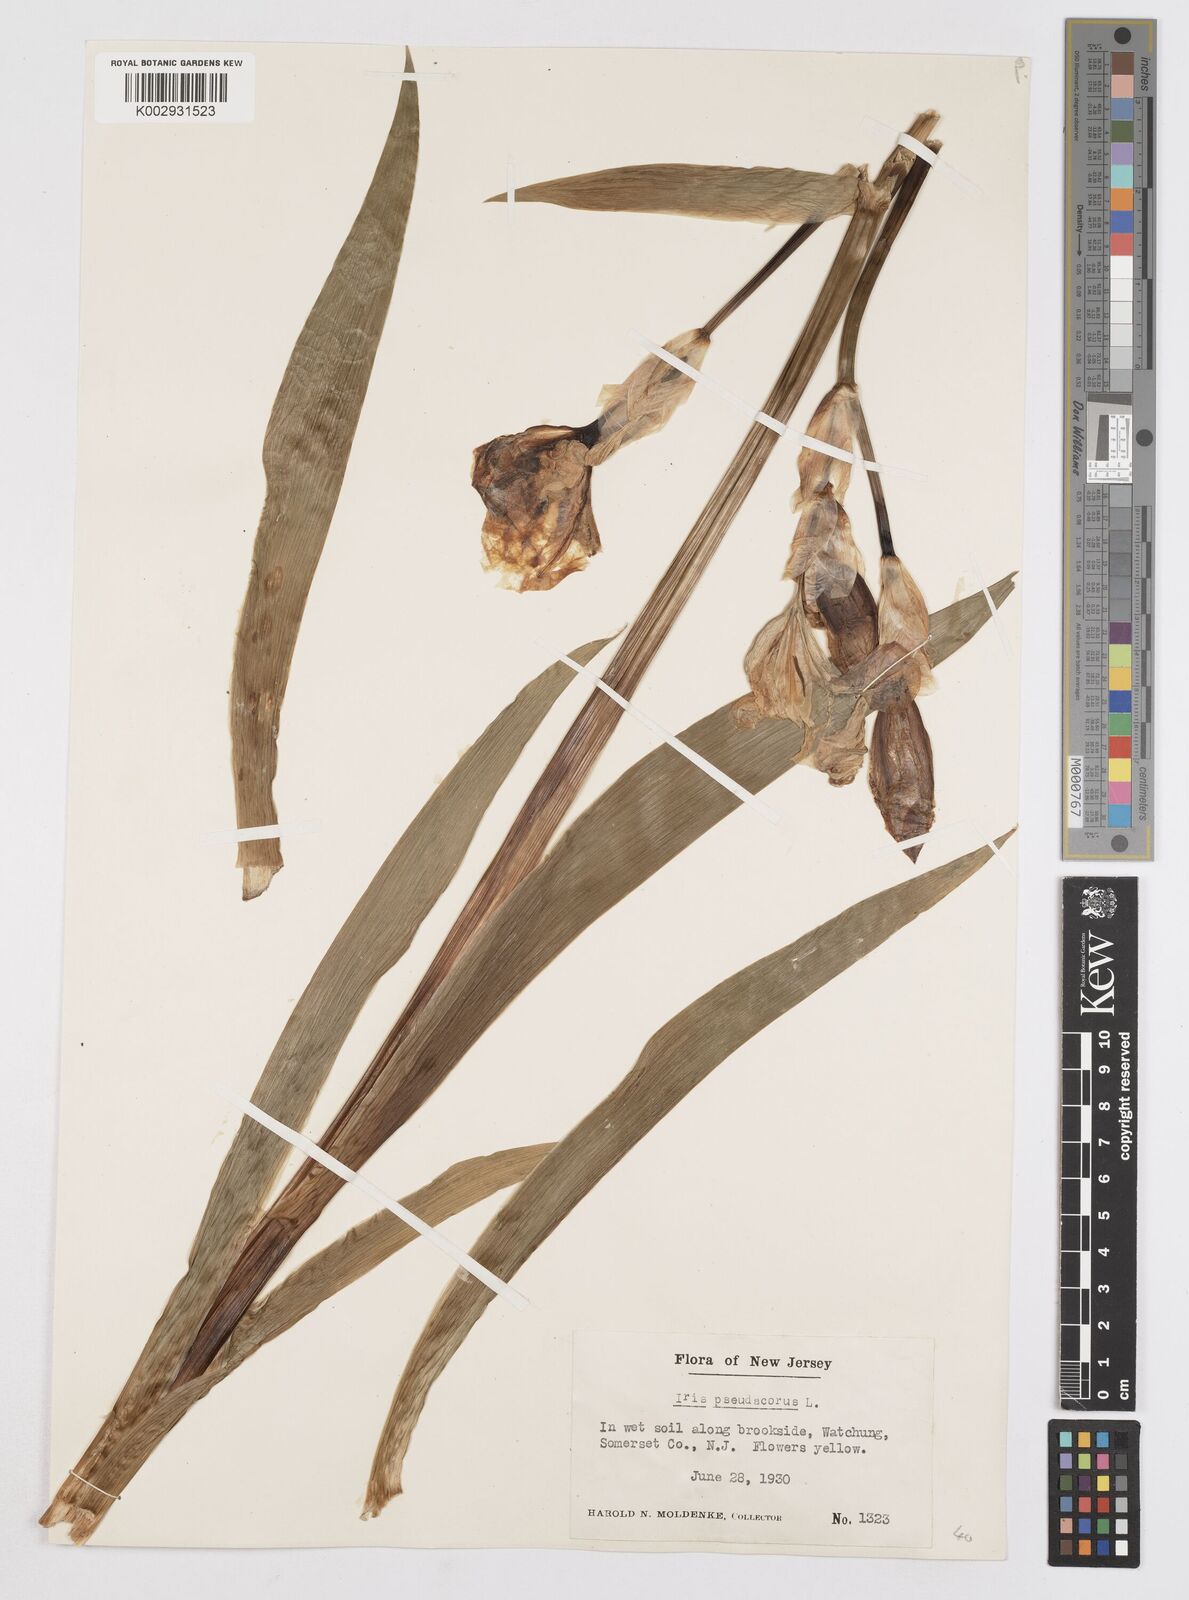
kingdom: Plantae
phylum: Tracheophyta
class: Liliopsida
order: Asparagales
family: Iridaceae
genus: Iris
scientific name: Iris pseudacorus
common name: Yellow flag
